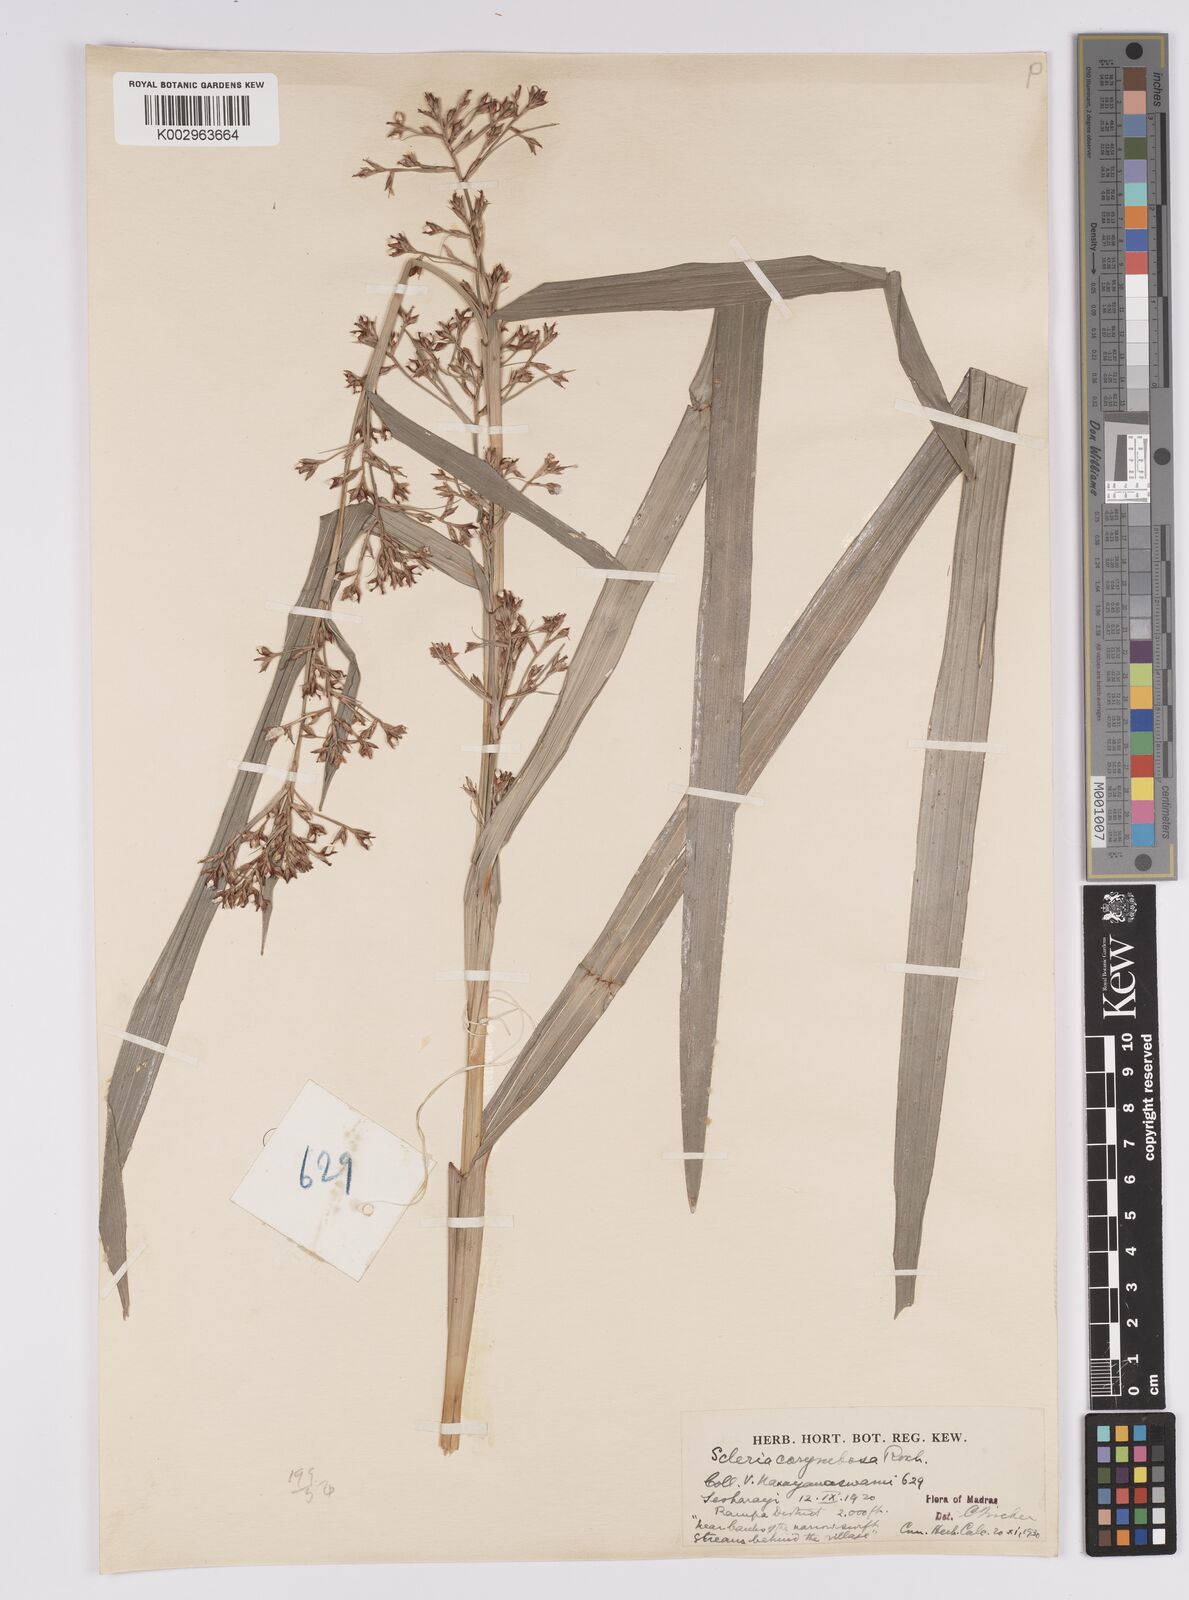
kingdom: Plantae
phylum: Tracheophyta
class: Liliopsida
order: Poales
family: Cyperaceae
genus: Scleria
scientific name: Scleria corymbosa
